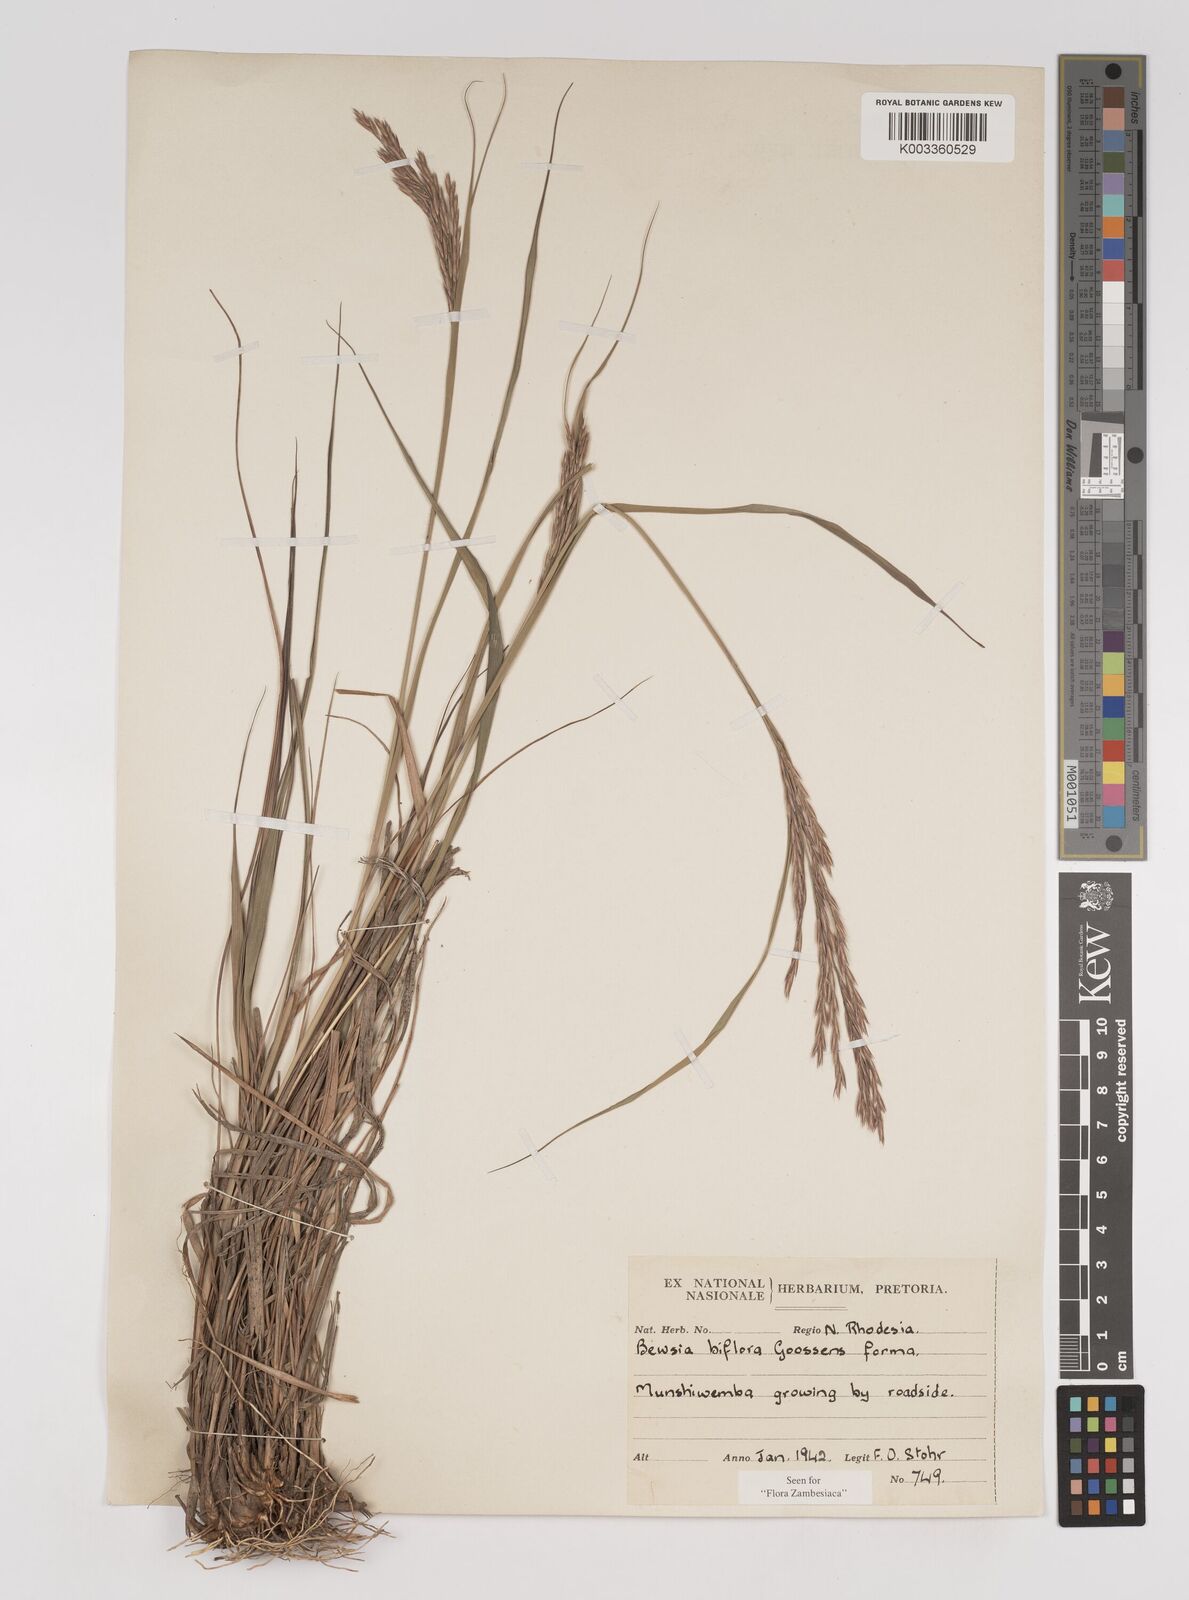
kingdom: Plantae
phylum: Tracheophyta
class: Liliopsida
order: Poales
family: Poaceae
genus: Bewsia
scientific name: Bewsia biflora
